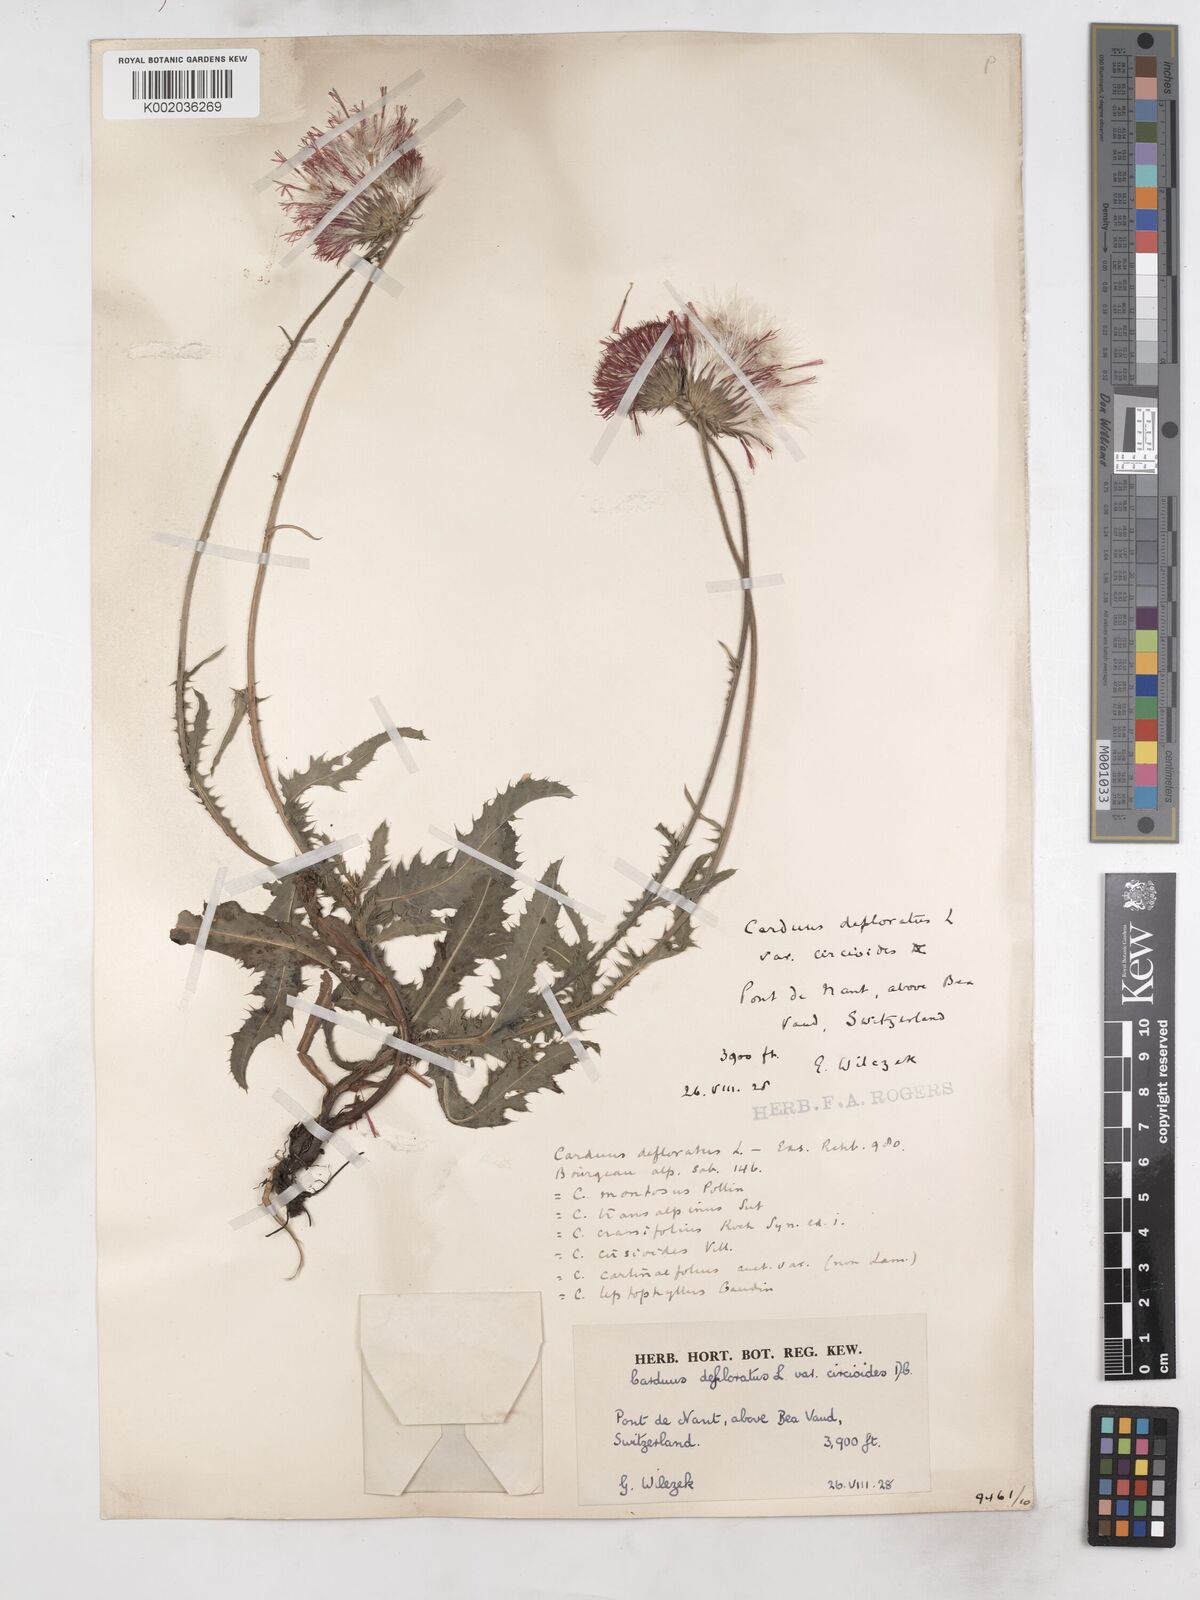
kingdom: Plantae
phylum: Tracheophyta
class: Magnoliopsida
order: Asterales
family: Asteraceae
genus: Carduus
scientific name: Carduus defloratus
